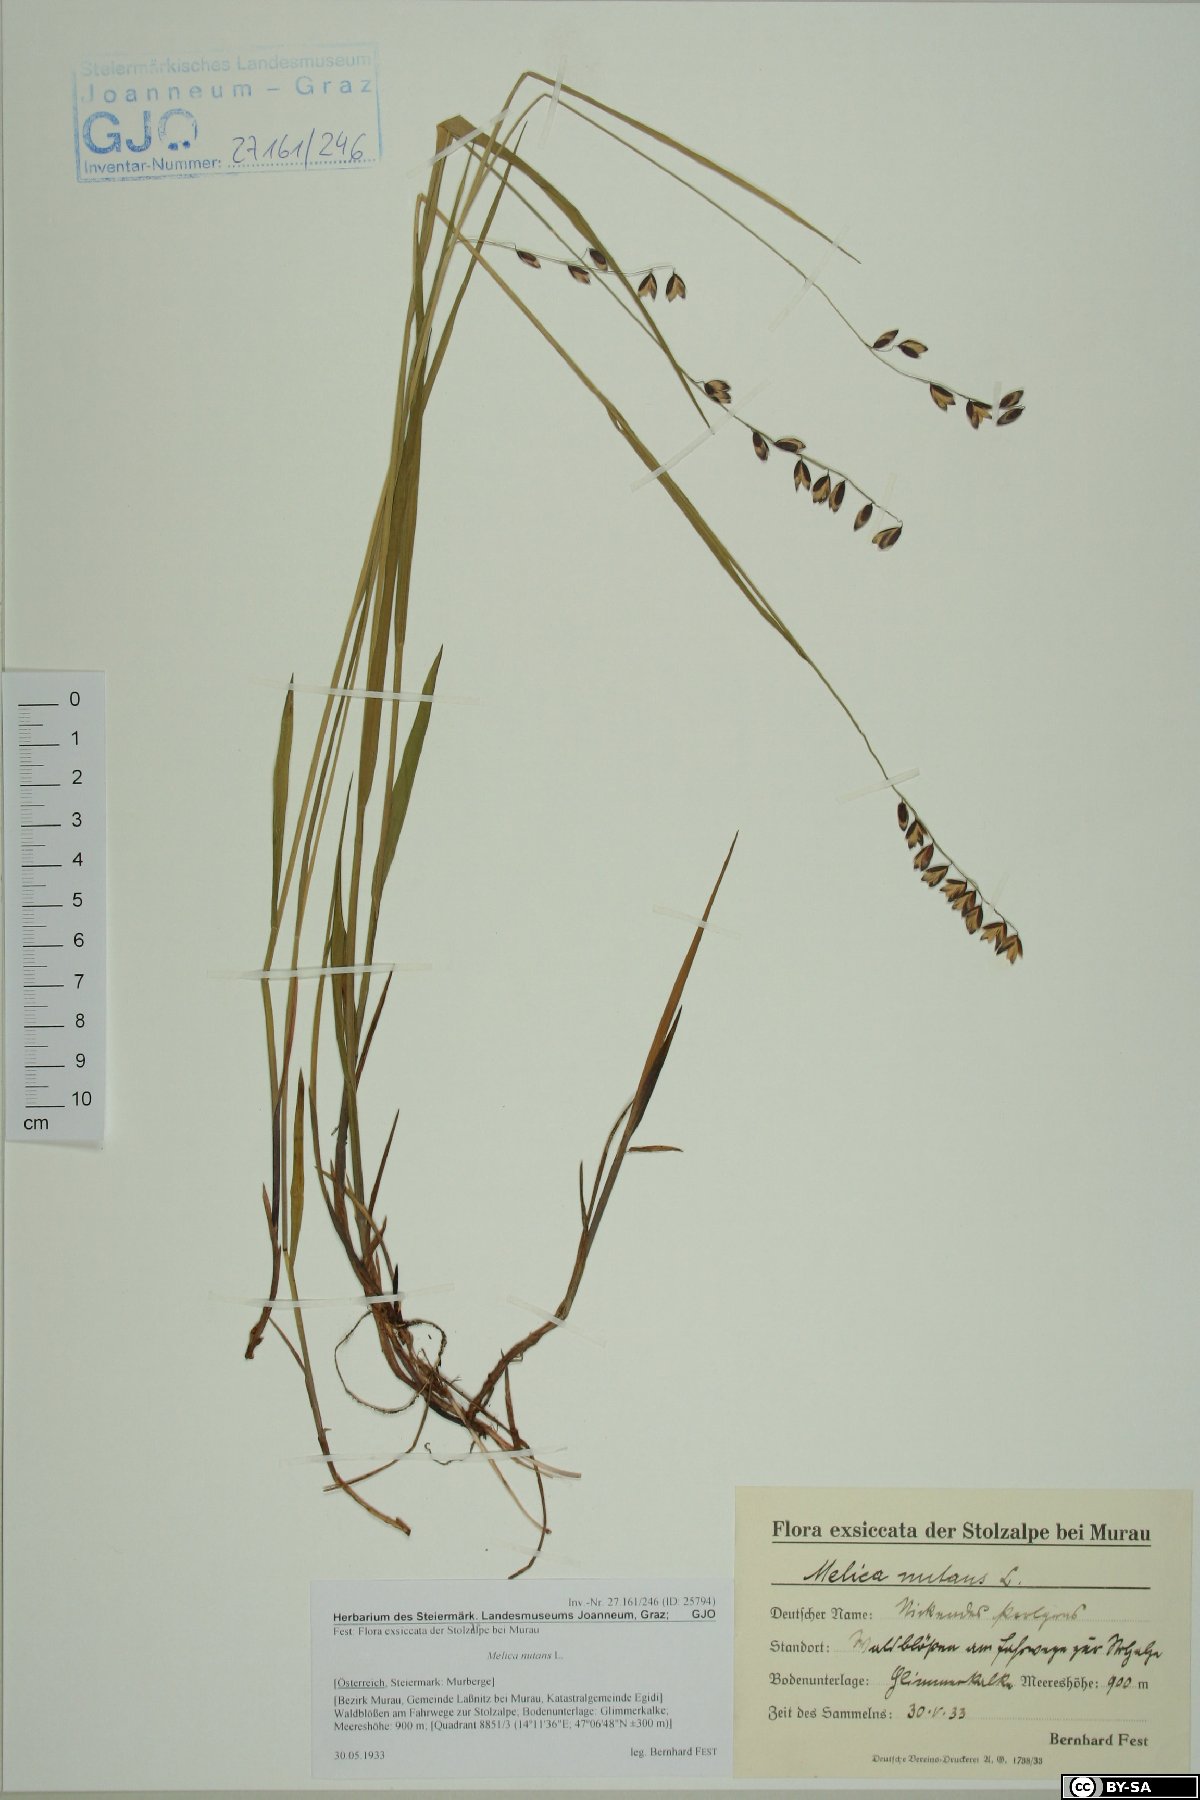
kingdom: Plantae
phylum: Tracheophyta
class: Liliopsida
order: Poales
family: Poaceae
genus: Melica
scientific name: Melica nutans
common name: Mountain melick
